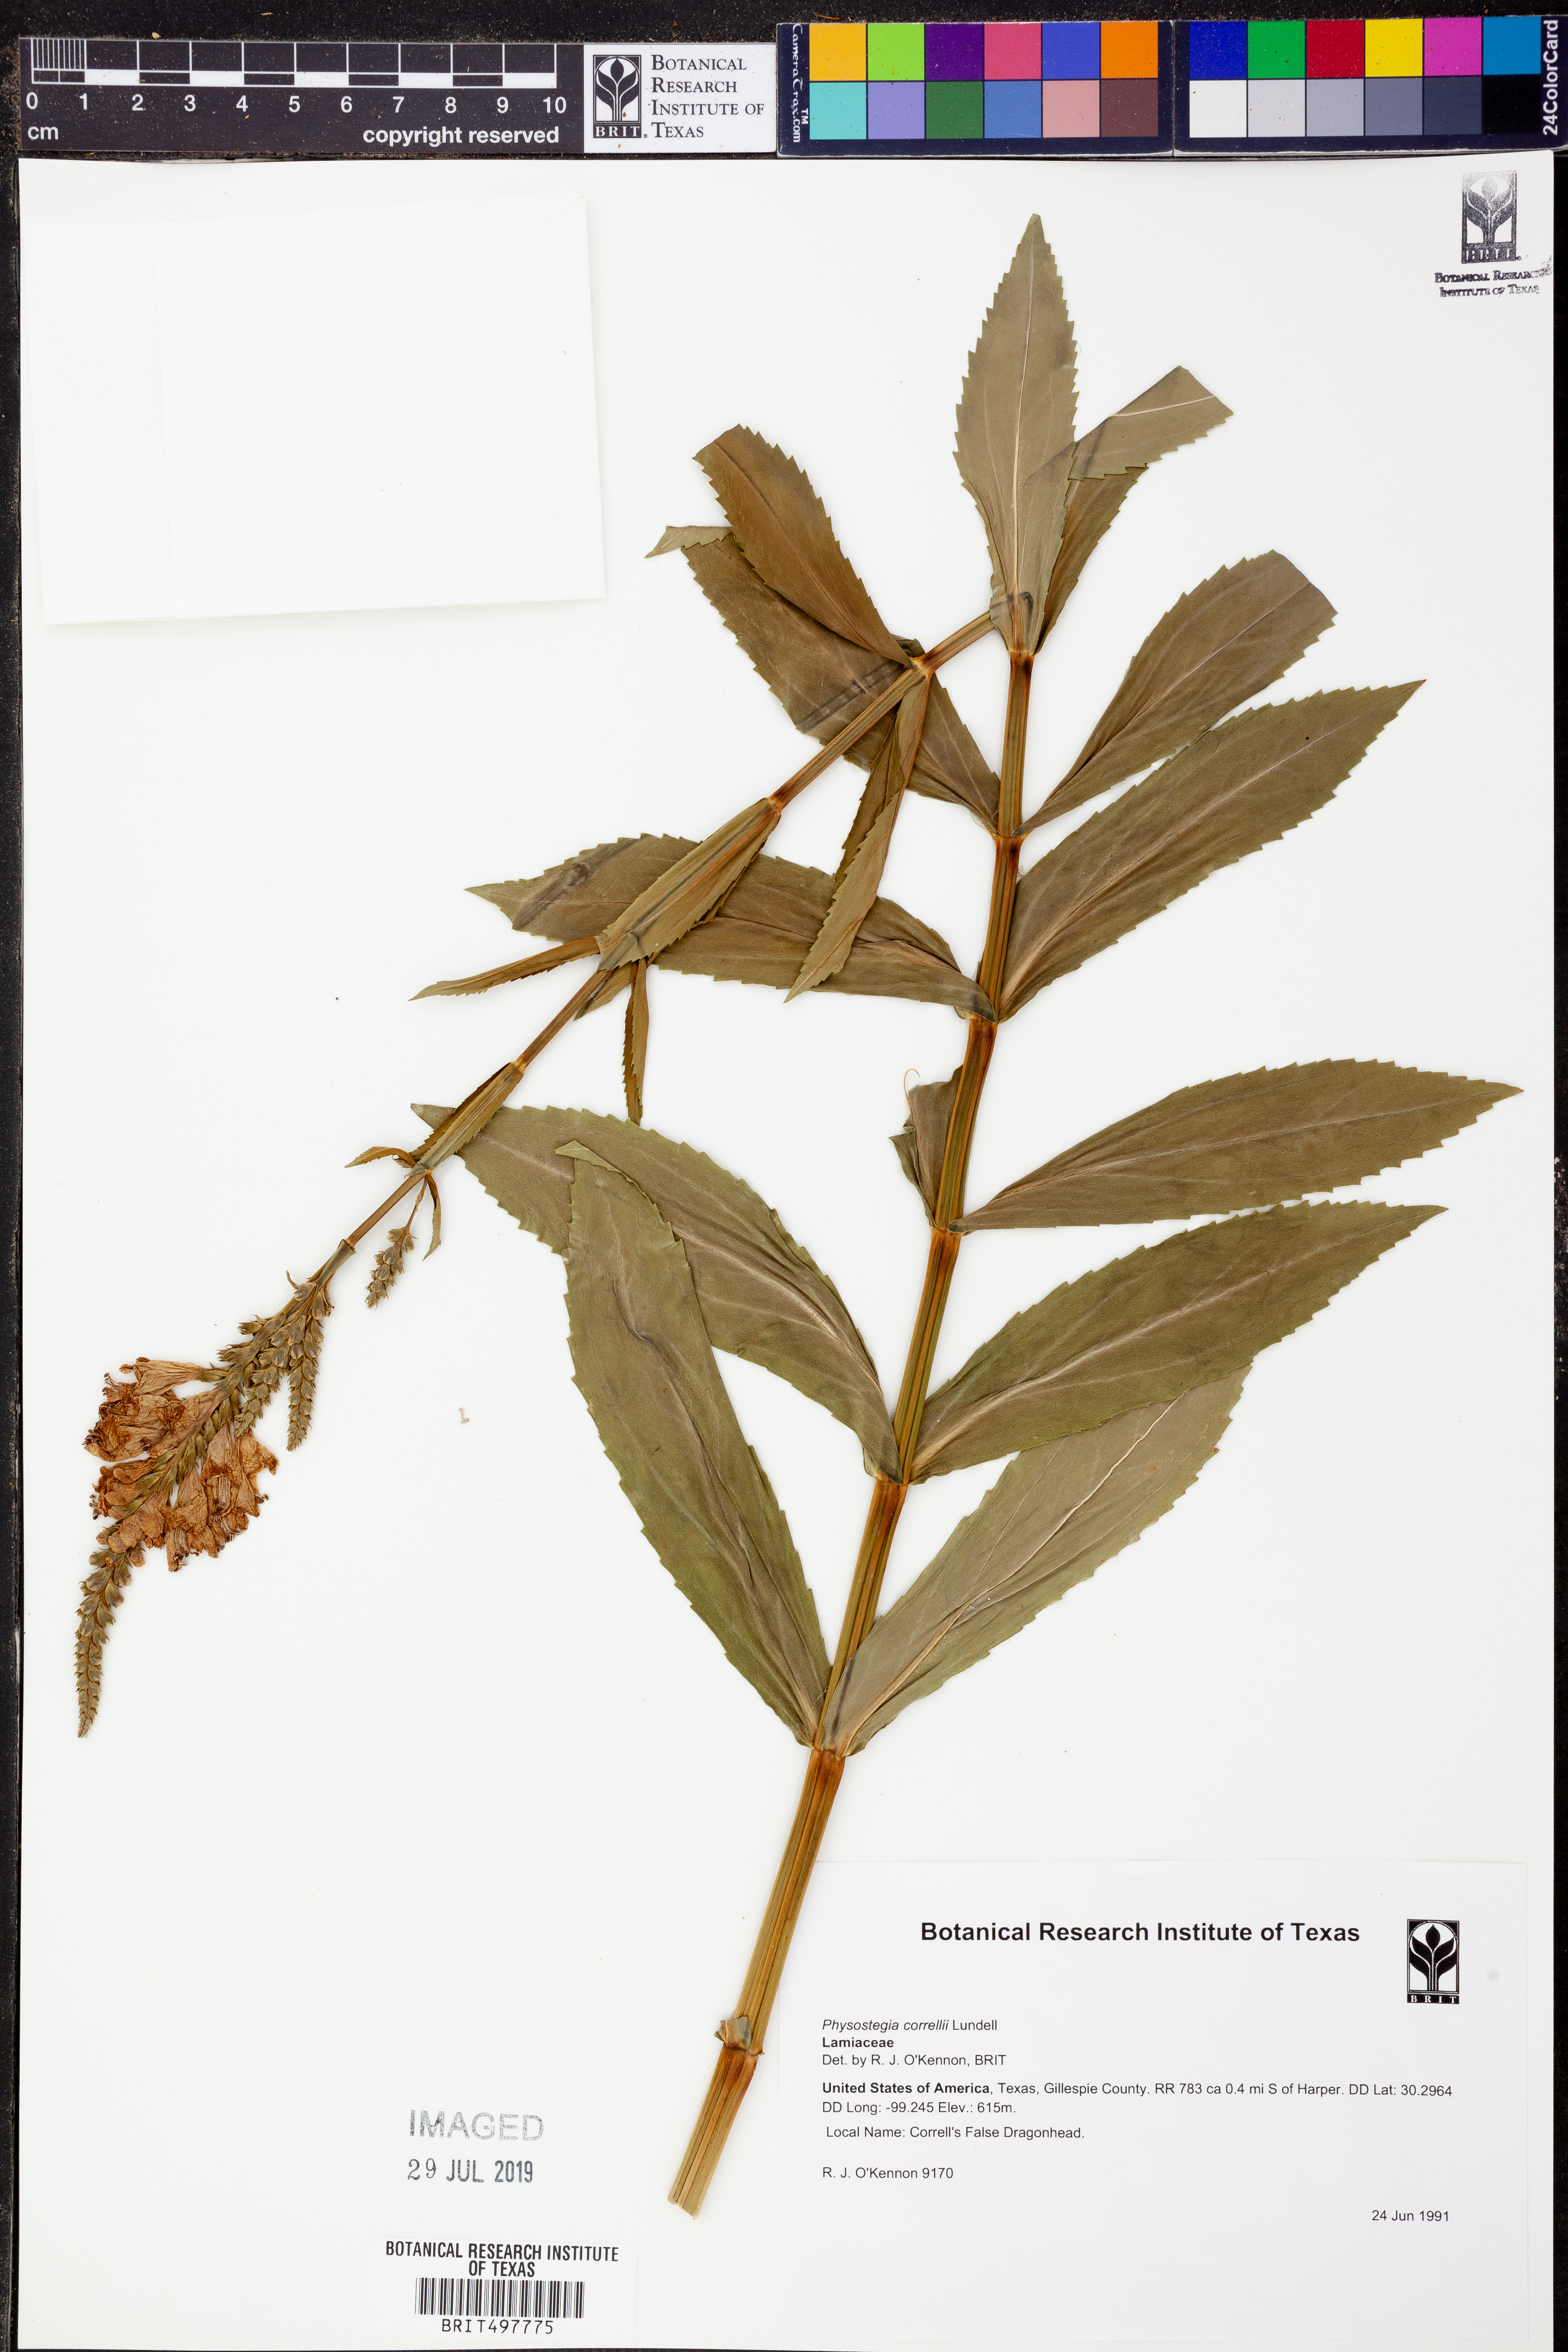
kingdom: Plantae
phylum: Tracheophyta
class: Magnoliopsida
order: Lamiales
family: Lamiaceae
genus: Physostegia
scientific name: Physostegia correllii
